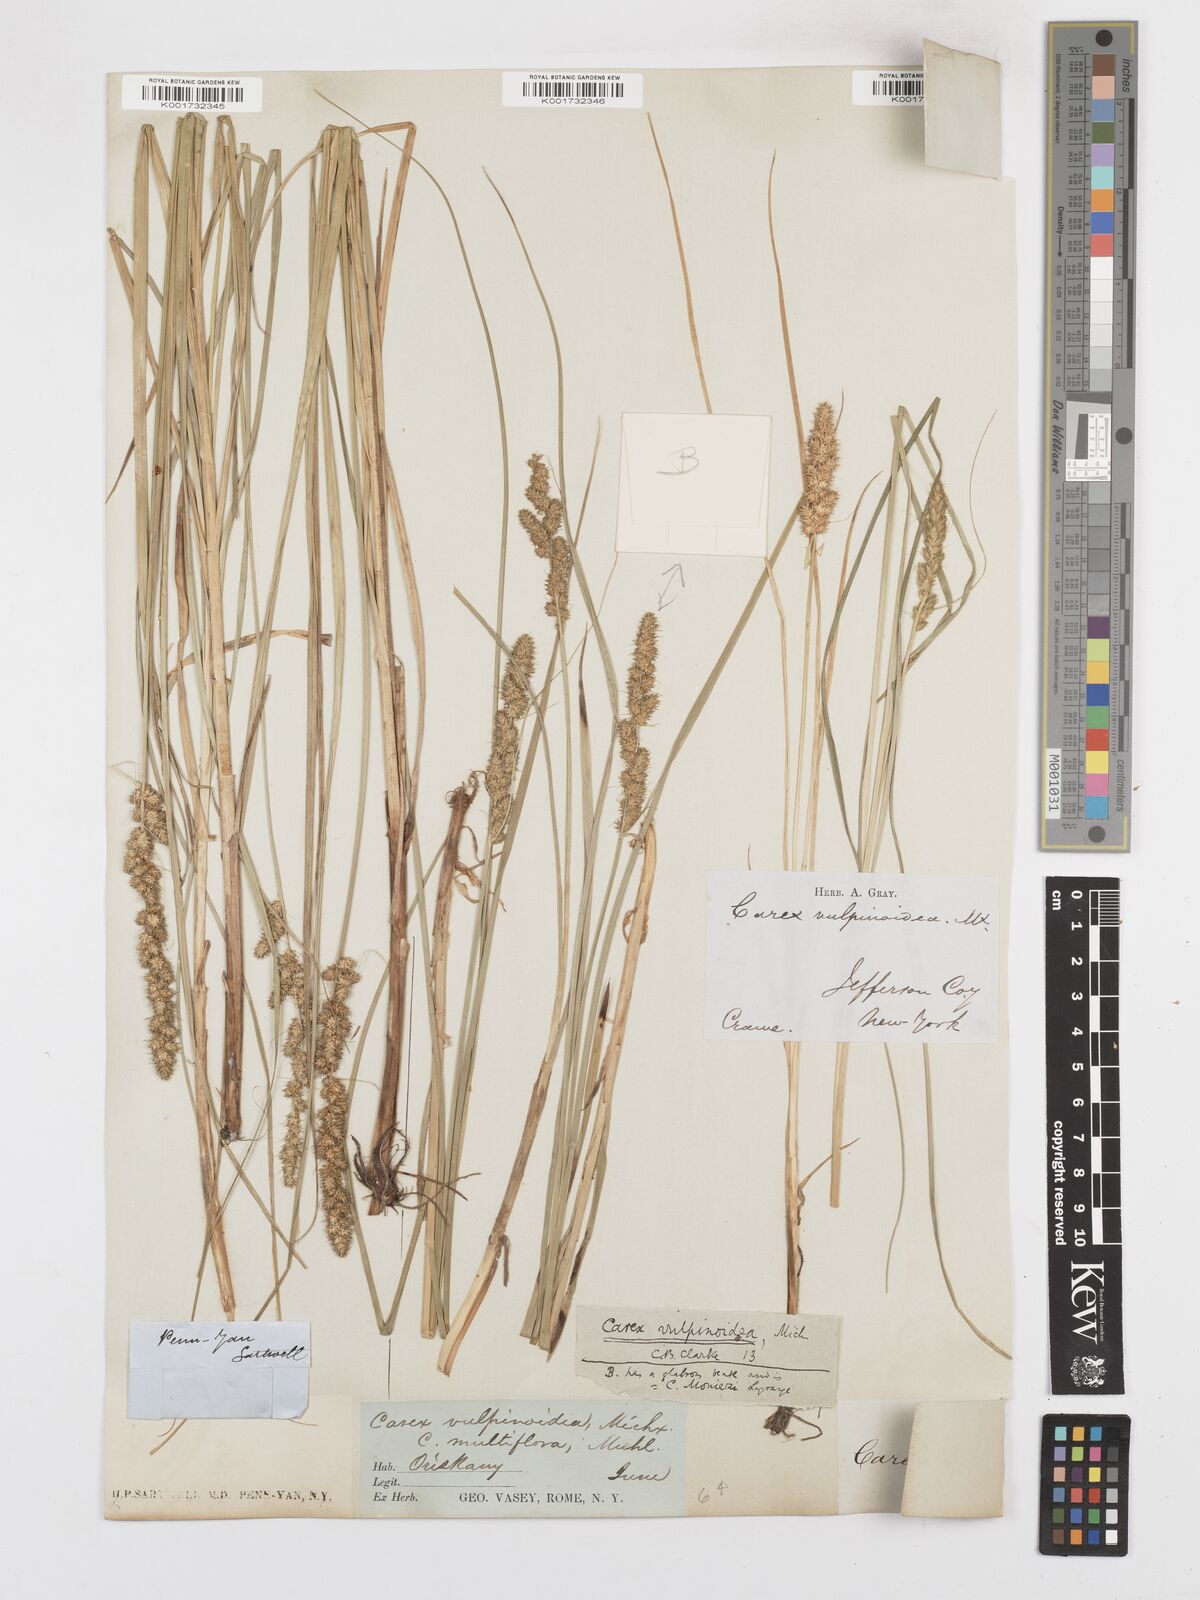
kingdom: Plantae
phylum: Tracheophyta
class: Liliopsida
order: Poales
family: Cyperaceae
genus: Carex
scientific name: Carex vulpinoidea
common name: American fox-sedge
